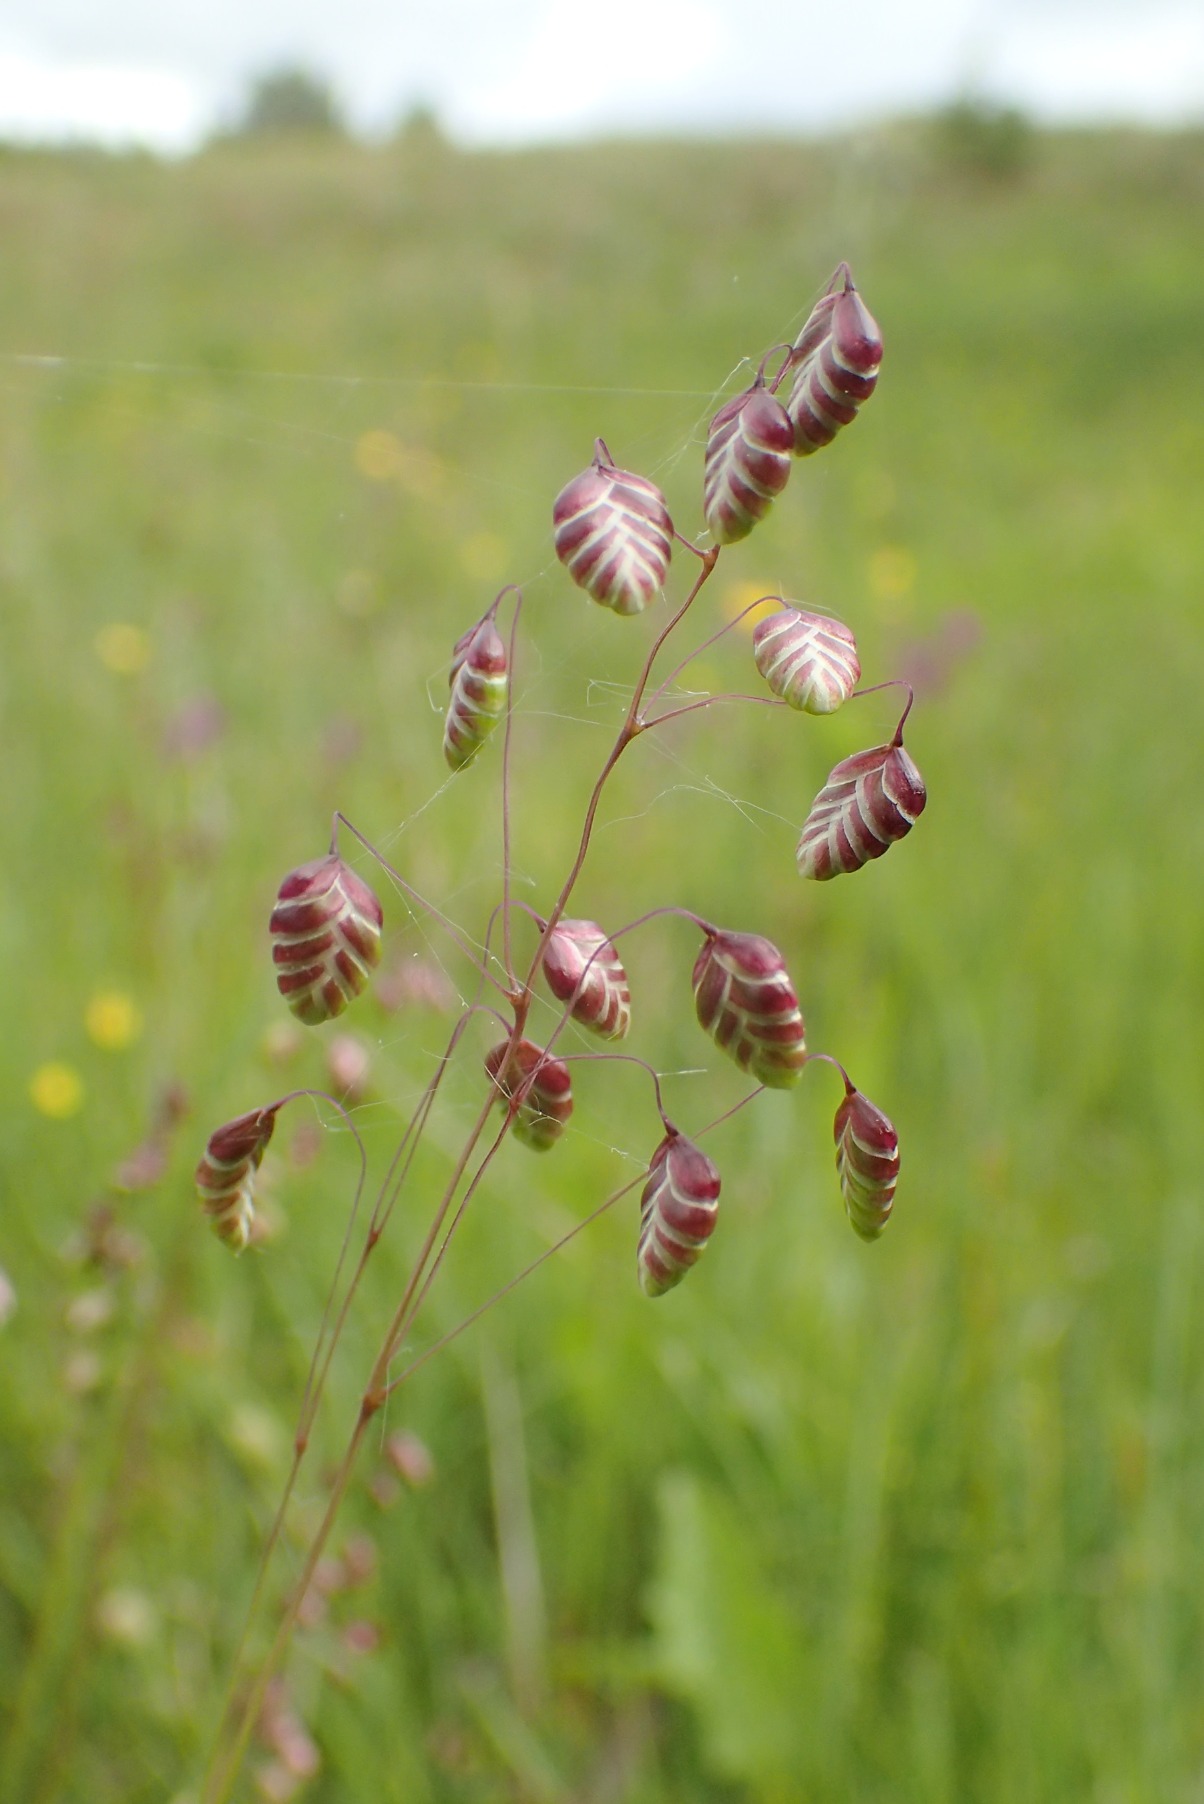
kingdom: Plantae
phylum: Tracheophyta
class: Liliopsida
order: Poales
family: Poaceae
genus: Briza
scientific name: Briza media
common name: Hjertegræs
